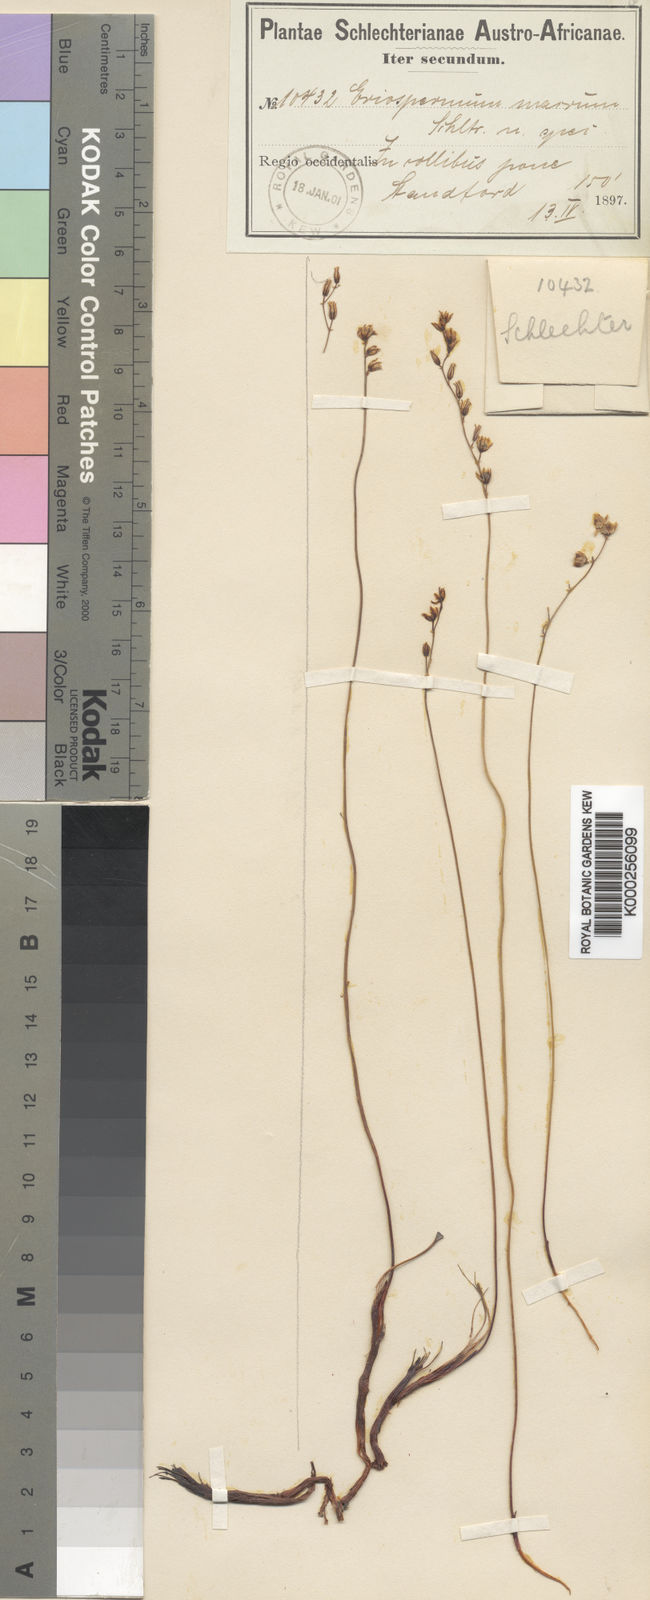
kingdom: Plantae
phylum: Tracheophyta
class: Liliopsida
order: Asparagales
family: Asparagaceae
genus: Eriospermum
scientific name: Eriospermum cernuum
